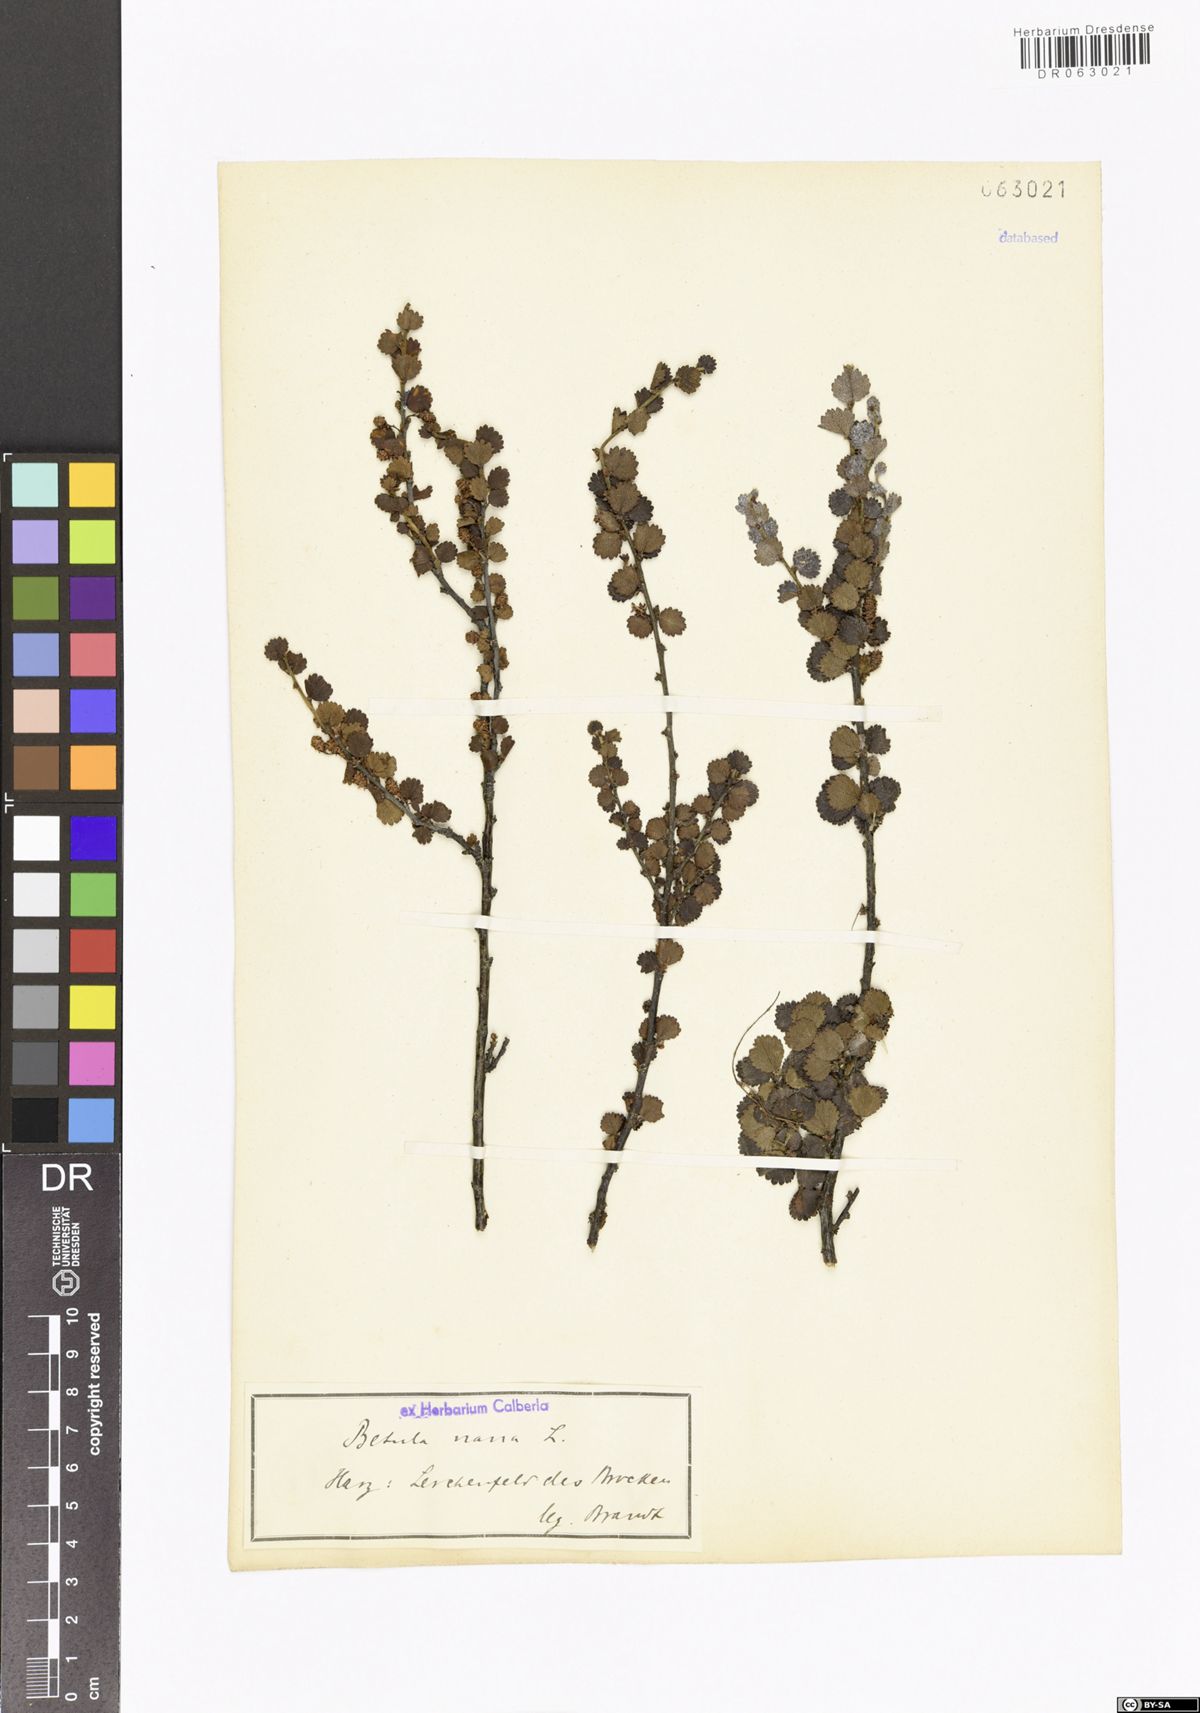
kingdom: Plantae
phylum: Tracheophyta
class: Magnoliopsida
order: Fagales
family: Betulaceae
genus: Betula
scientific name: Betula nana
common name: Arctic dwarf birch
